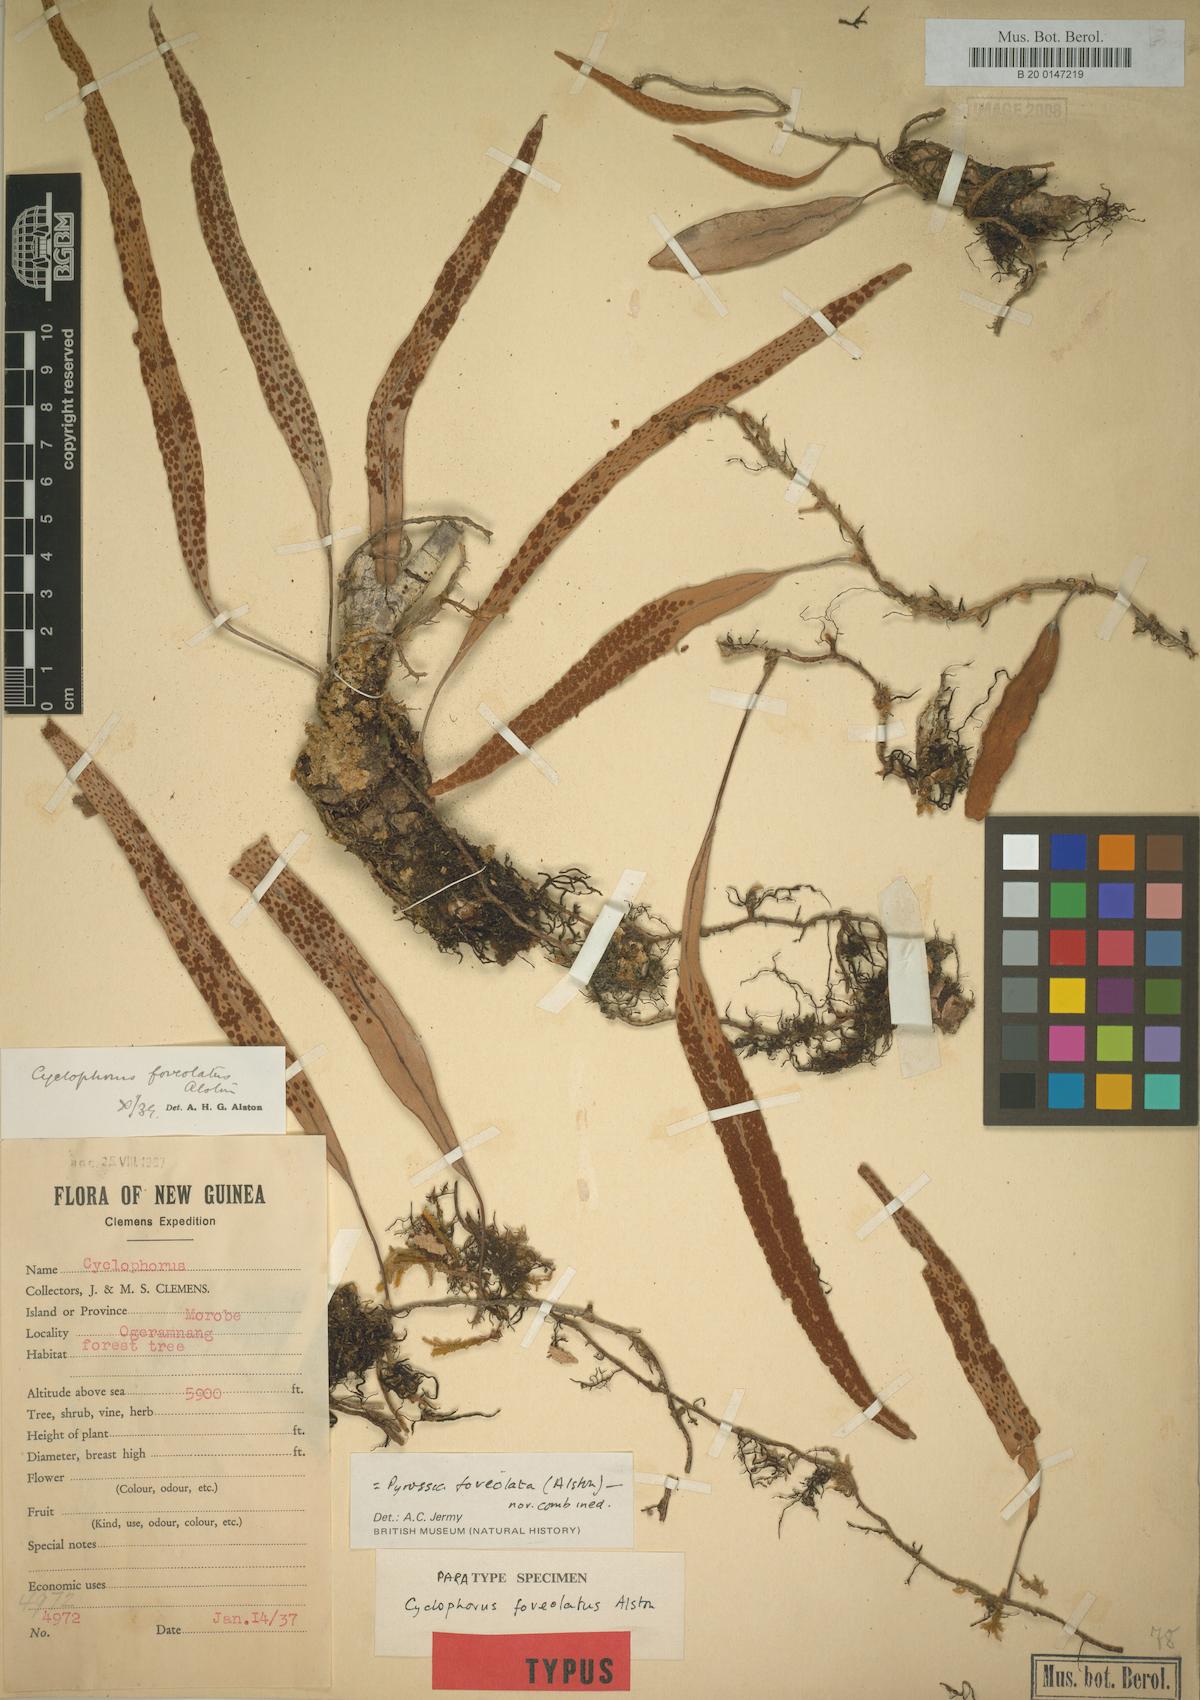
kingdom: Plantae
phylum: Tracheophyta
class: Polypodiopsida
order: Polypodiales
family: Polypodiaceae
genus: Pyrrosia
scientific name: Pyrrosia foveolata
